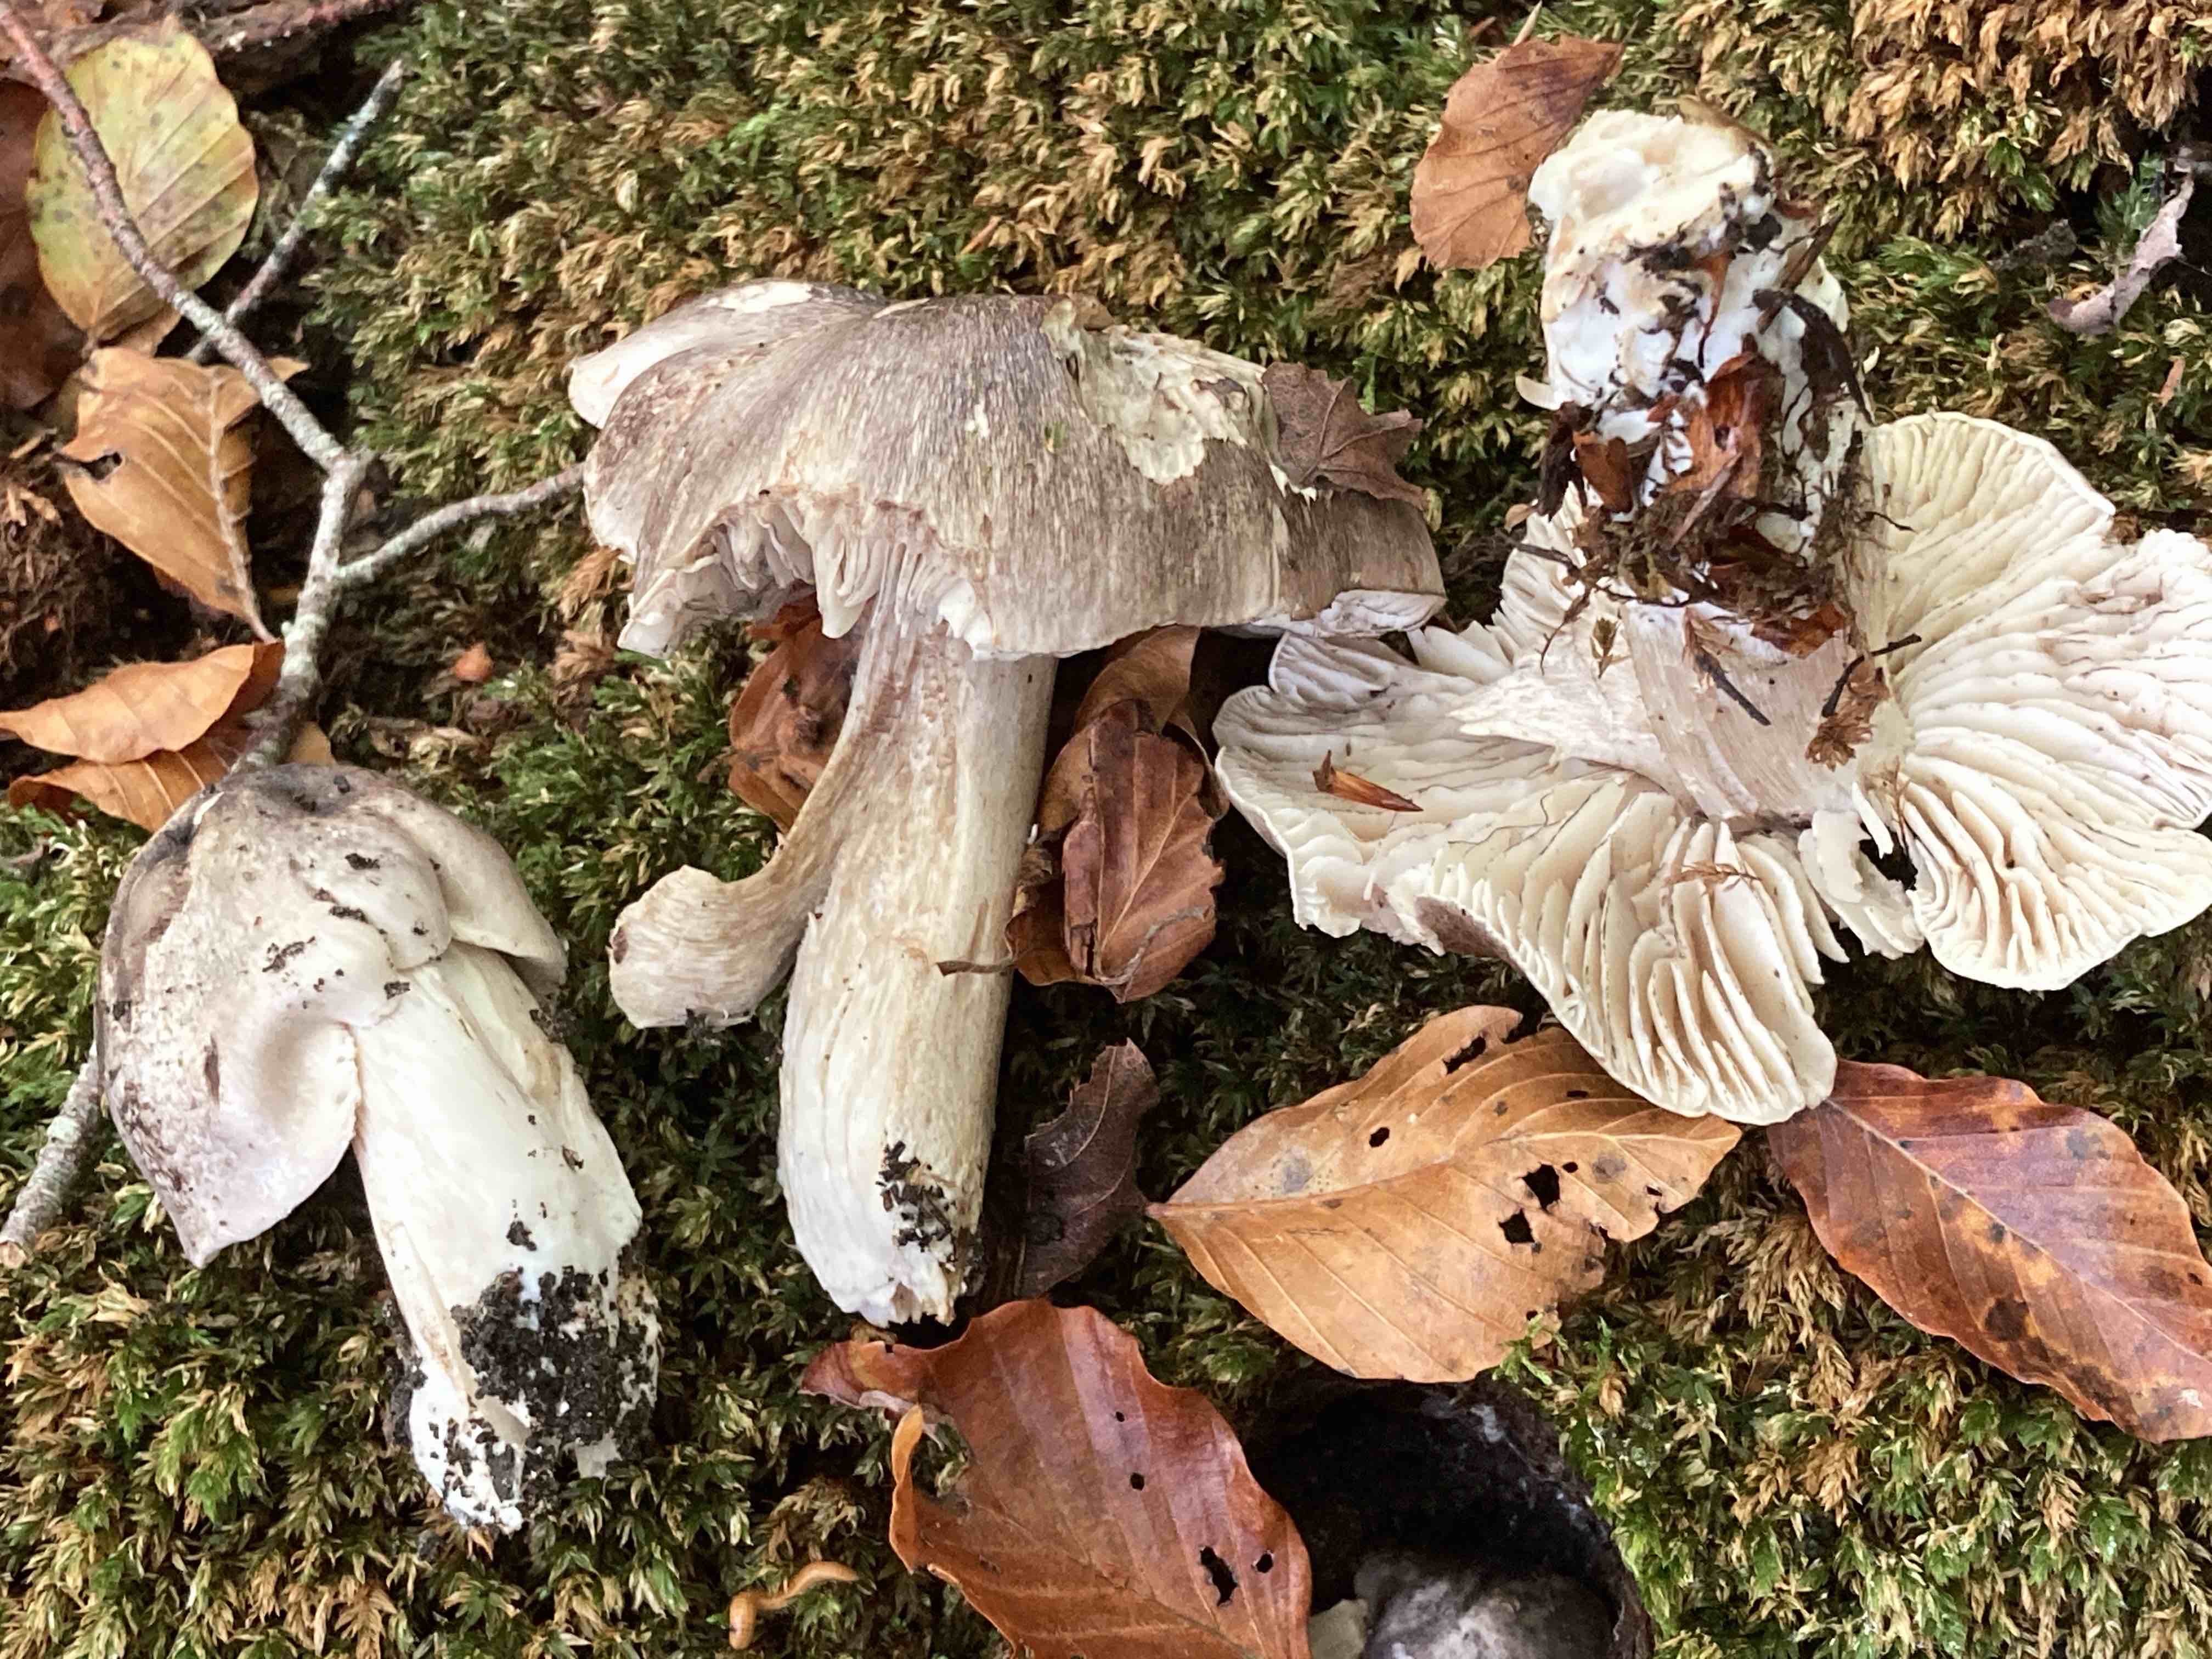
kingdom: Fungi
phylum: Basidiomycota
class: Agaricomycetes
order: Agaricales
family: Tricholomataceae
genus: Tricholoma
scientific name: Tricholoma sciodes
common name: stribet ridderhat
